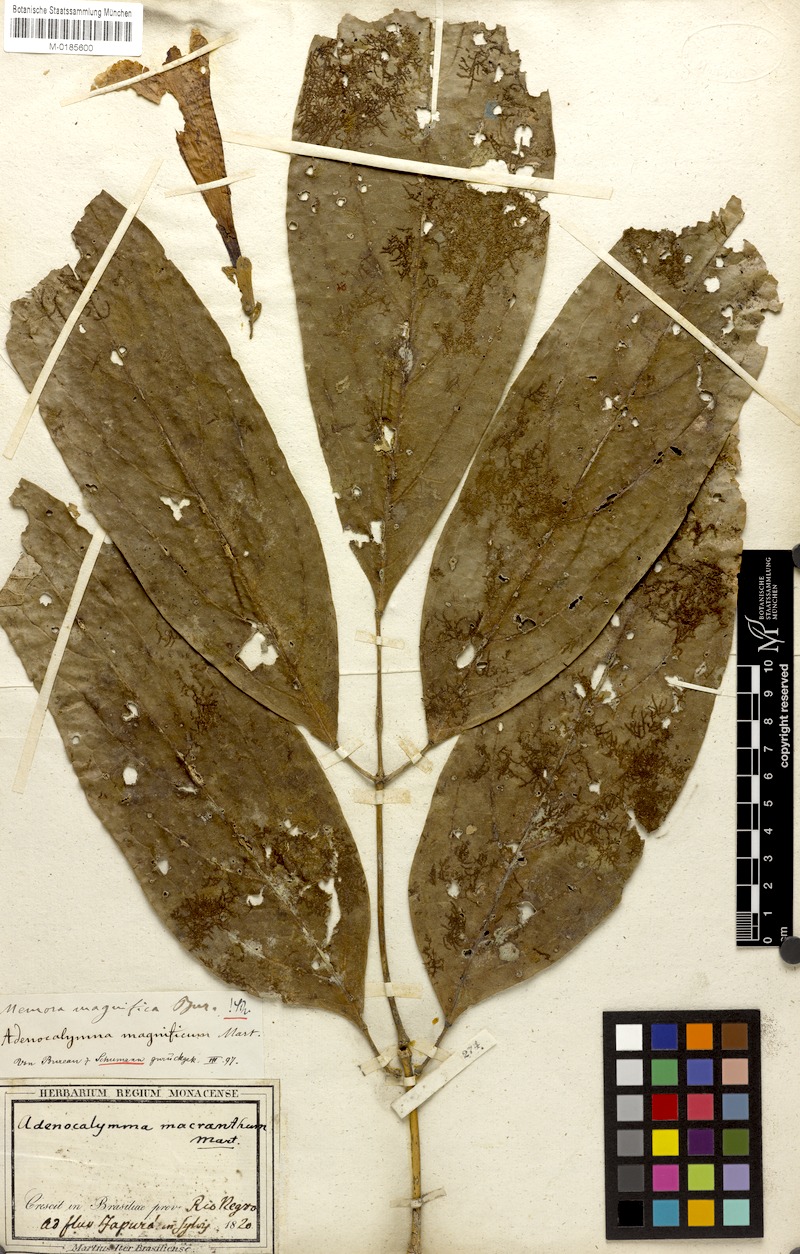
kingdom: Plantae
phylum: Tracheophyta
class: Magnoliopsida
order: Lamiales
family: Bignoniaceae
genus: Adenocalymma
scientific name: Adenocalymma magnificum
